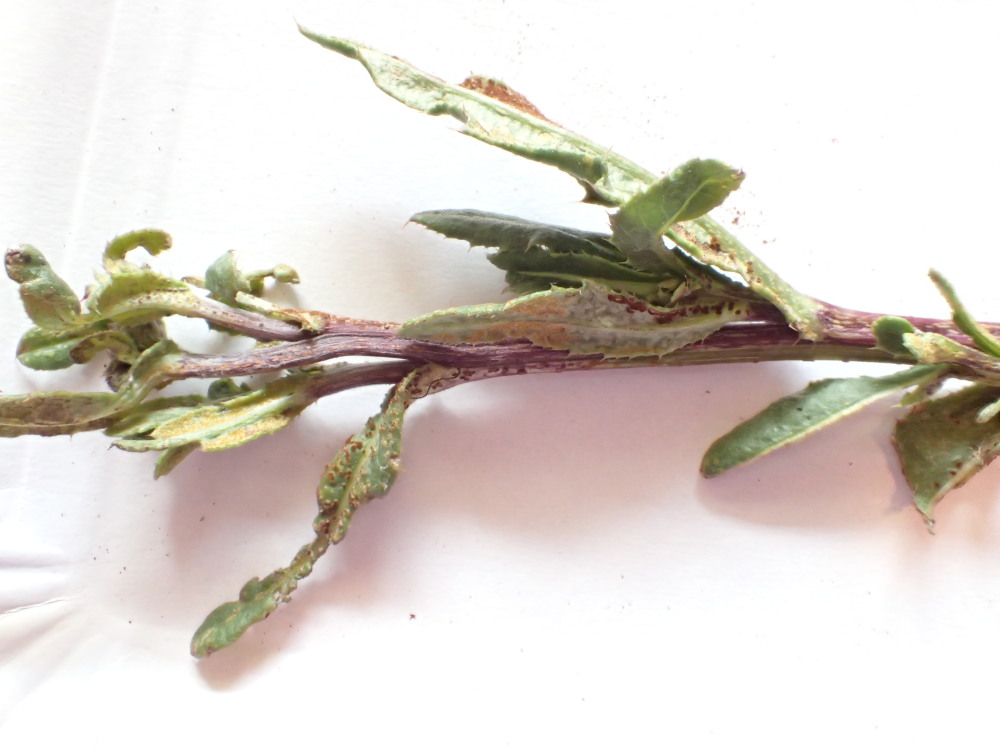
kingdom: Fungi
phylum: Basidiomycota
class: Pucciniomycetes
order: Pucciniales
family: Pucciniaceae
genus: Puccinia
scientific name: Puccinia suaveolens
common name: tidsel-tvecellerust
